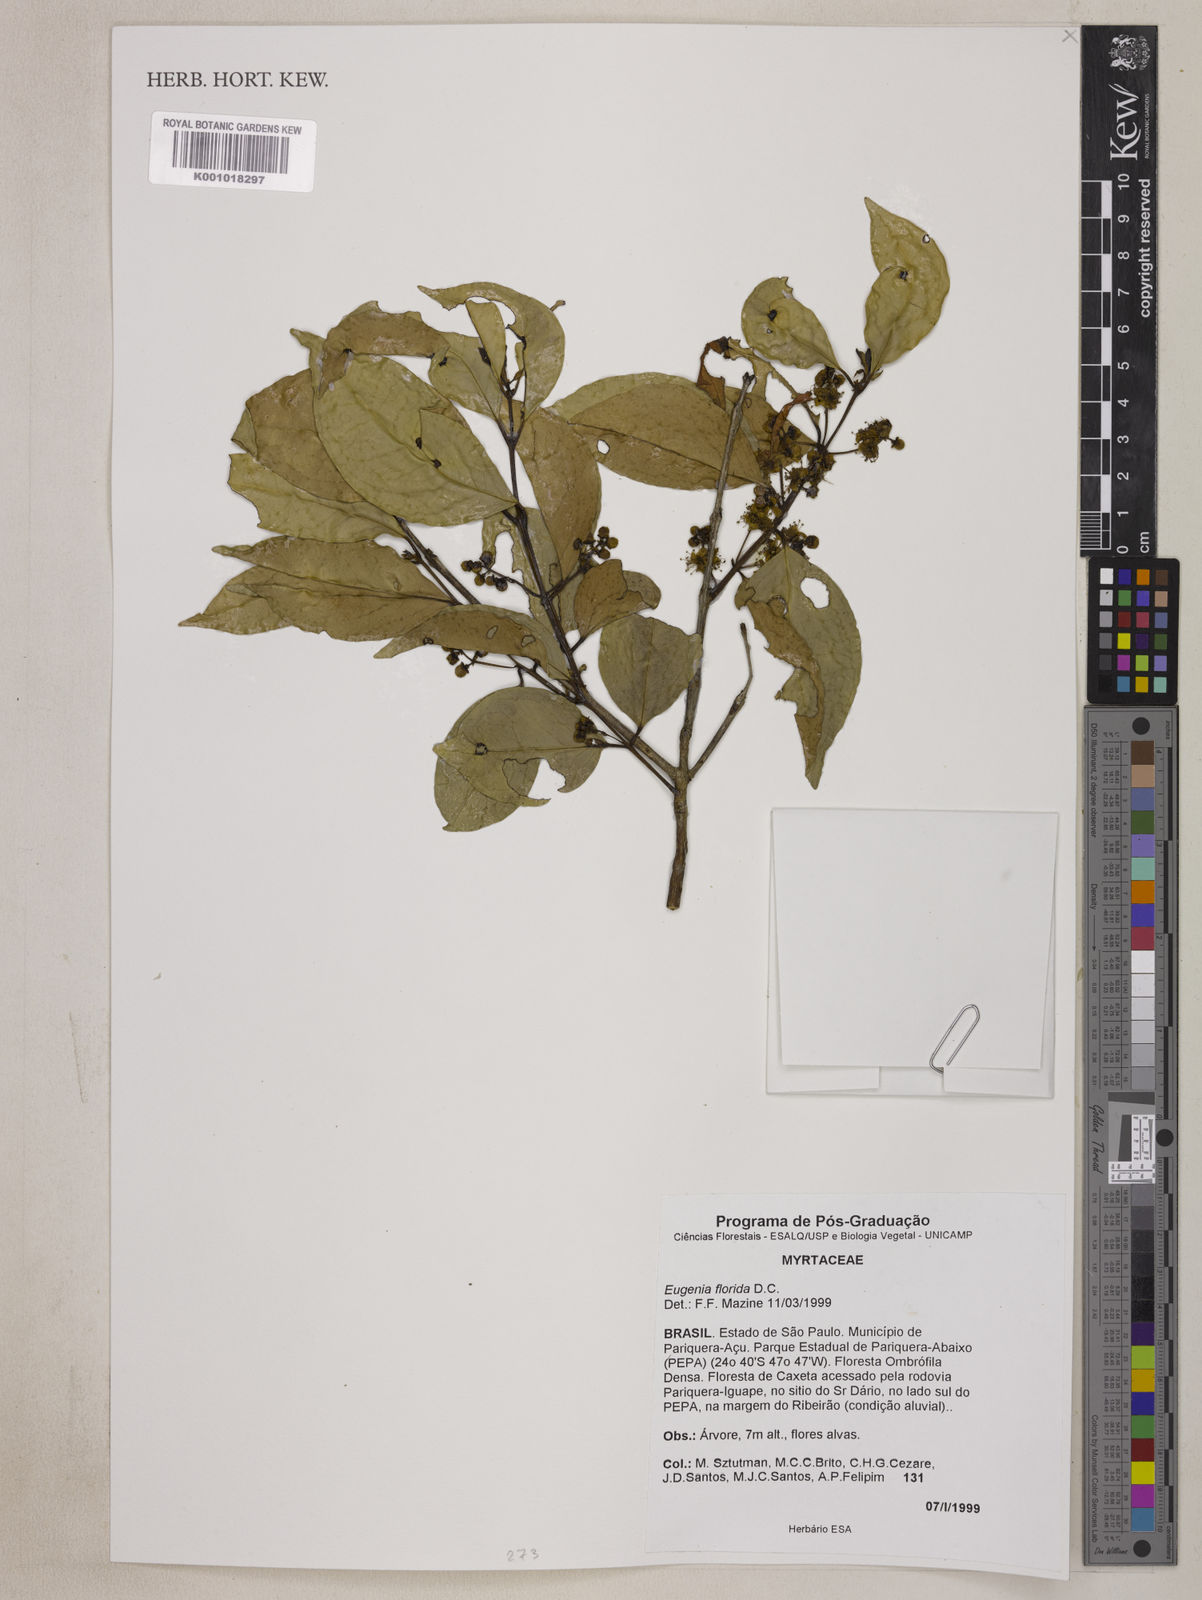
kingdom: Plantae
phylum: Tracheophyta
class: Magnoliopsida
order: Myrtales
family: Myrtaceae
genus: Eugenia
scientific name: Eugenia florida
